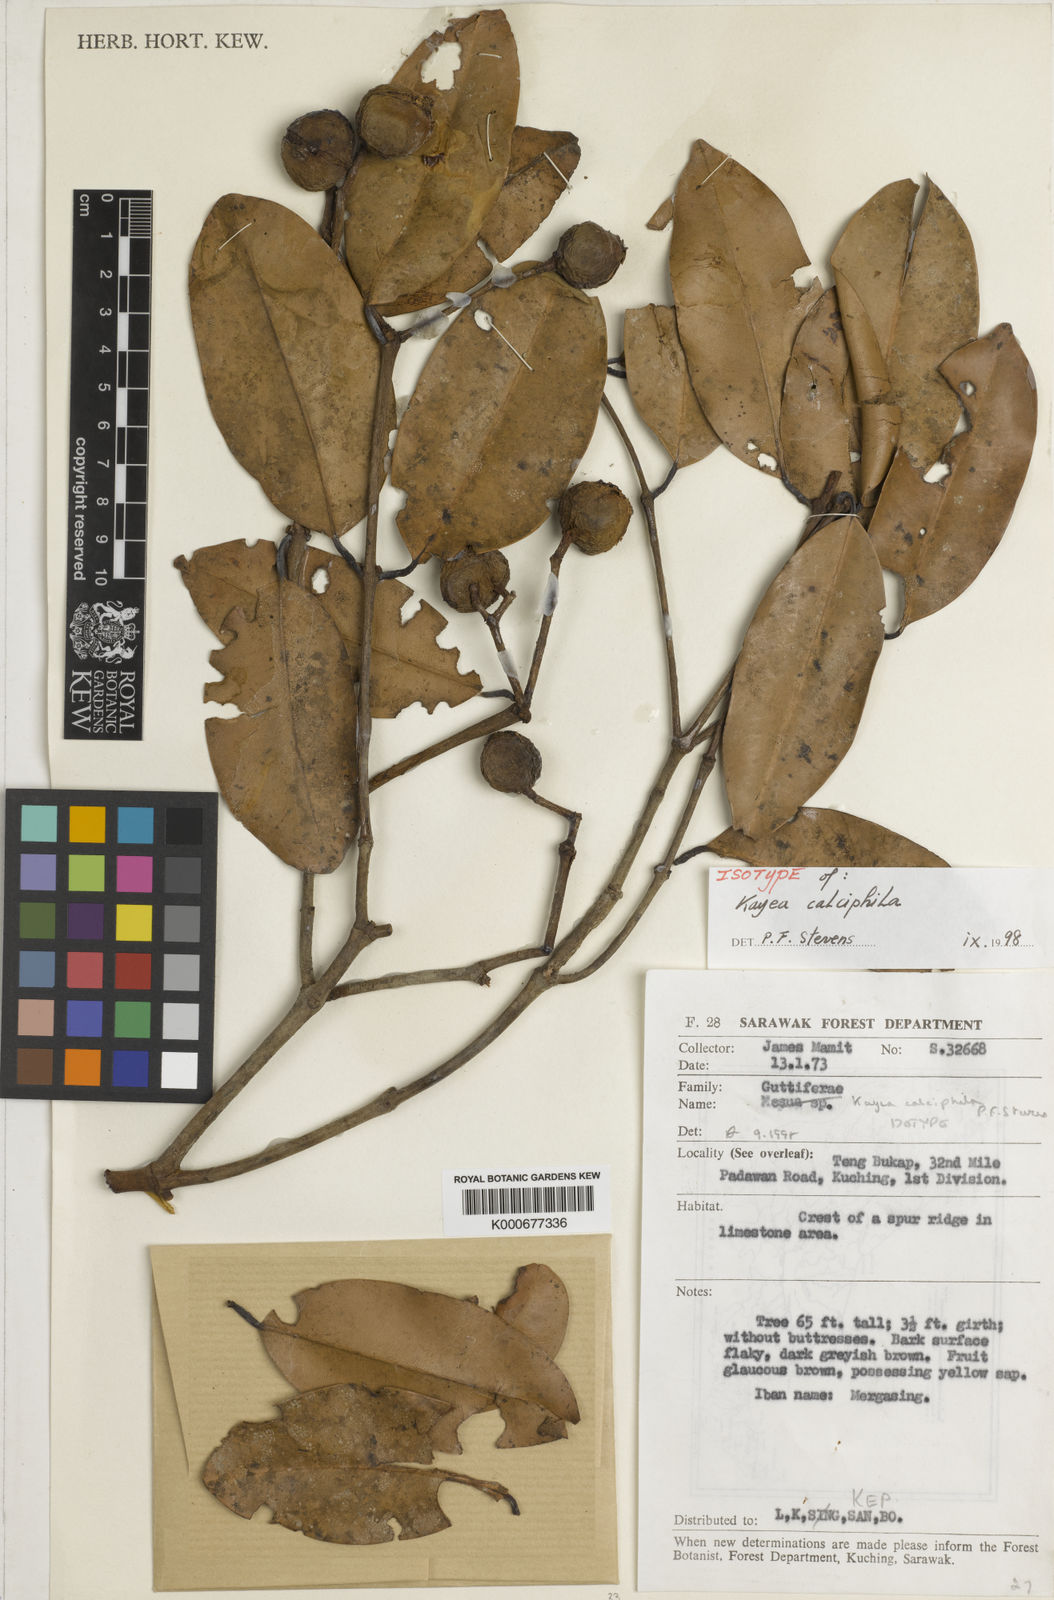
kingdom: Plantae
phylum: Tracheophyta
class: Magnoliopsida
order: Malpighiales
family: Calophyllaceae
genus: Kayea
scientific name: Kayea
